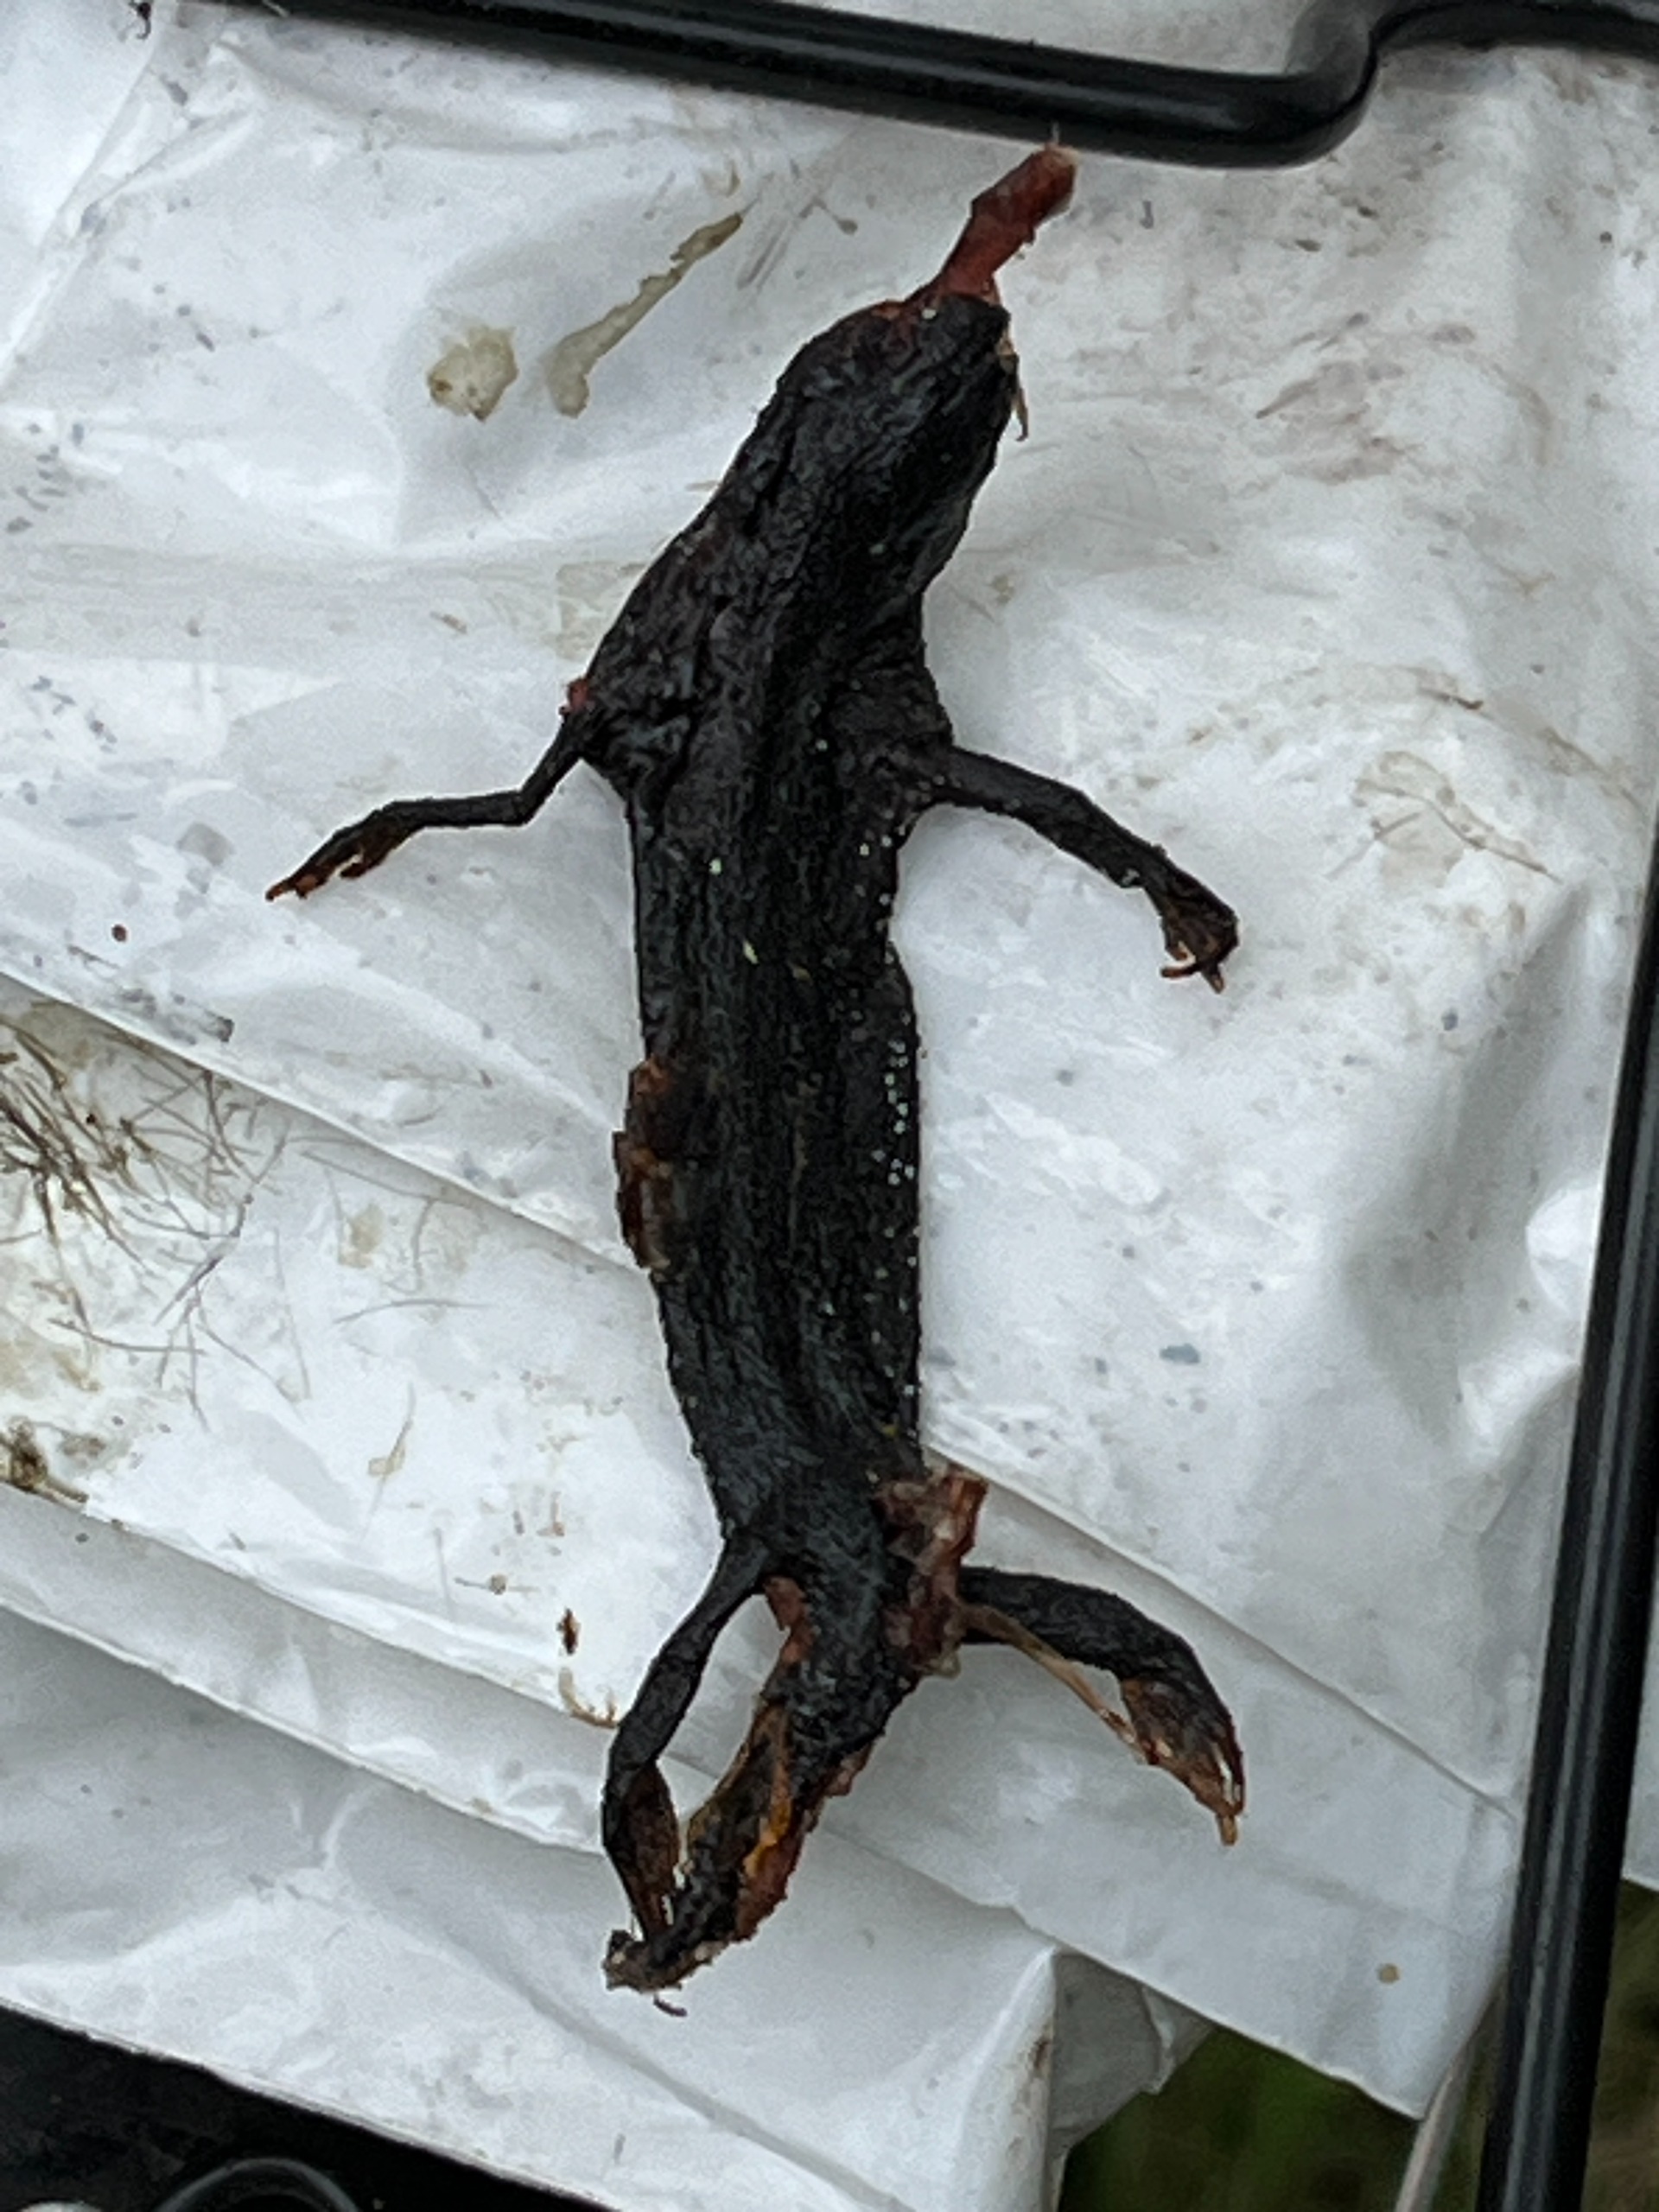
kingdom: Animalia
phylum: Chordata
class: Amphibia
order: Caudata
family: Salamandridae
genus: Triturus
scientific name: Triturus cristatus
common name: Stor vandsalamander
